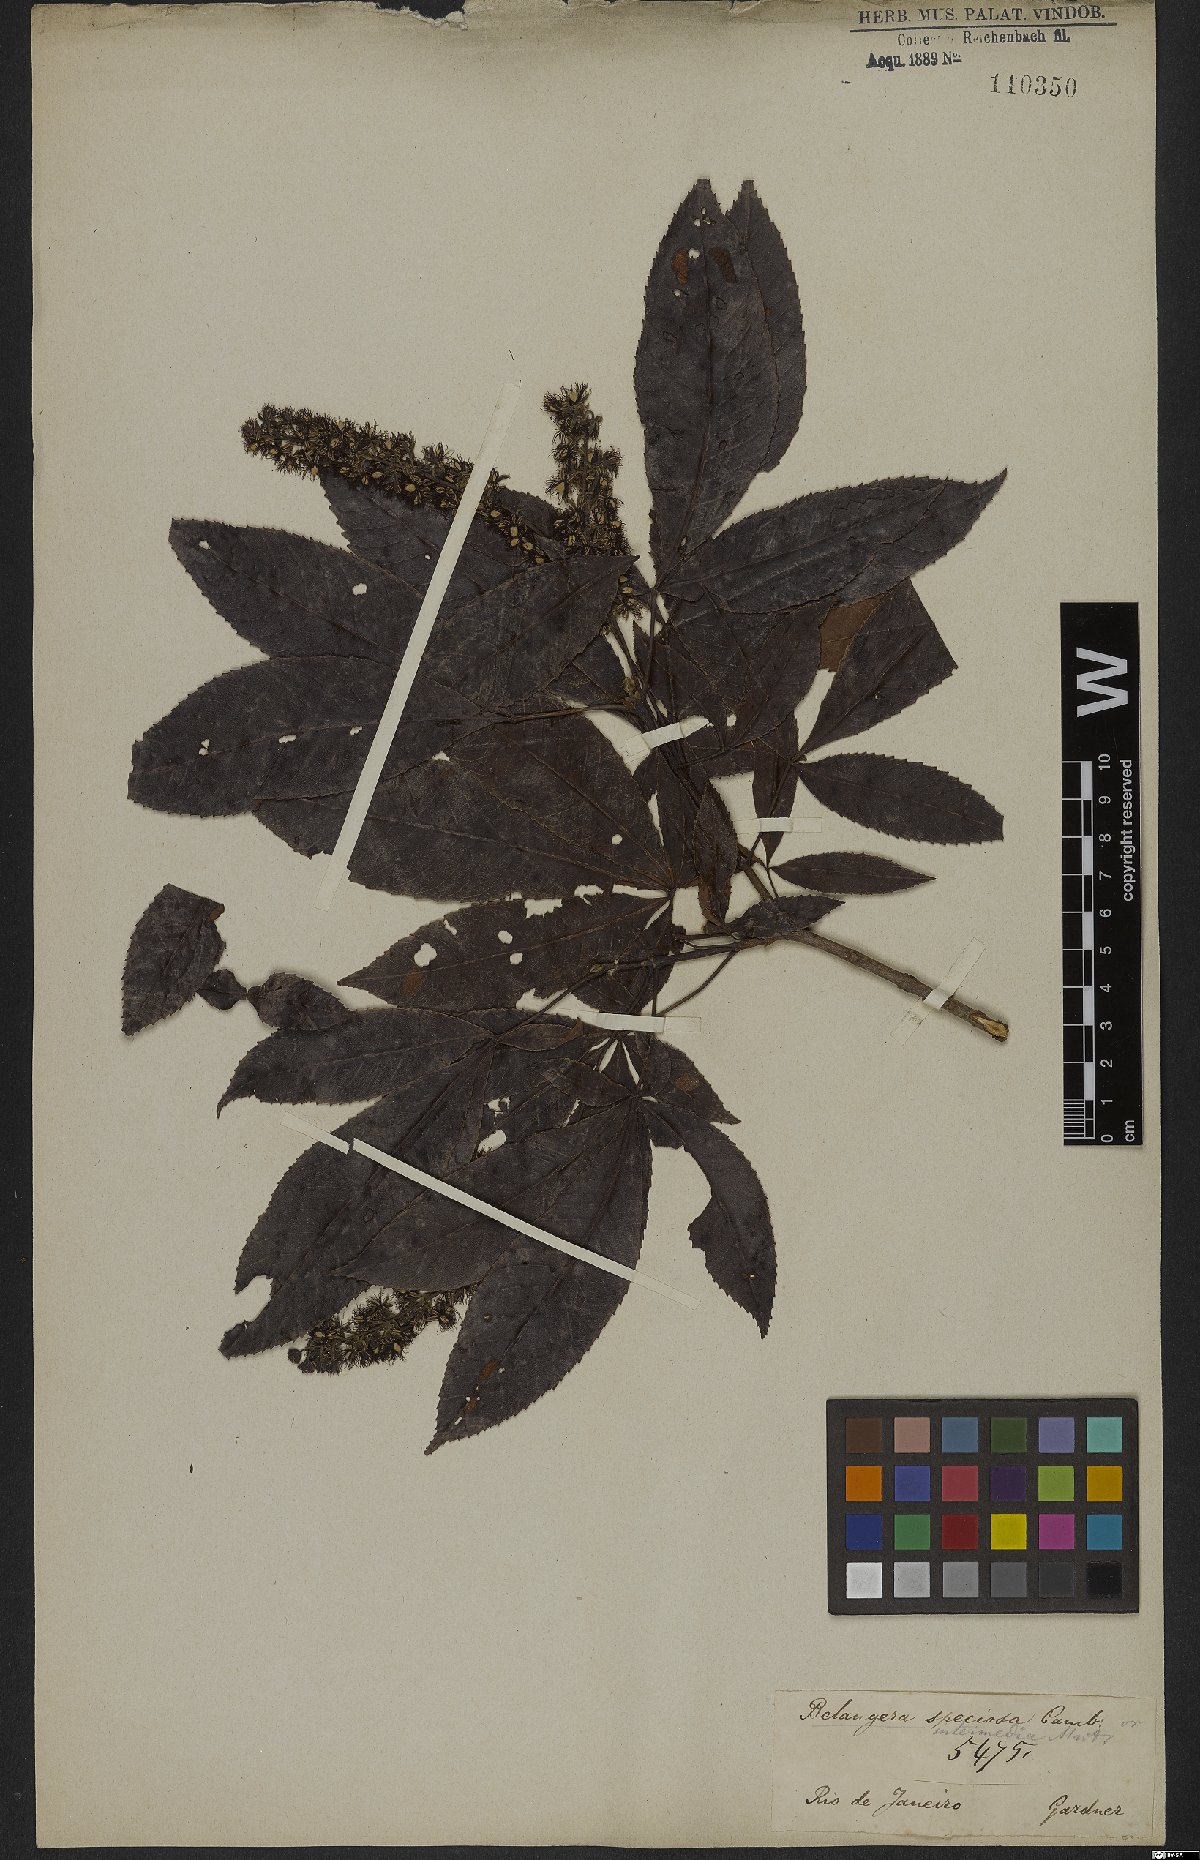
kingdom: Plantae
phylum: Tracheophyta
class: Magnoliopsida
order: Oxalidales
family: Cunoniaceae
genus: Lamanonia
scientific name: Lamanonia speciosa
